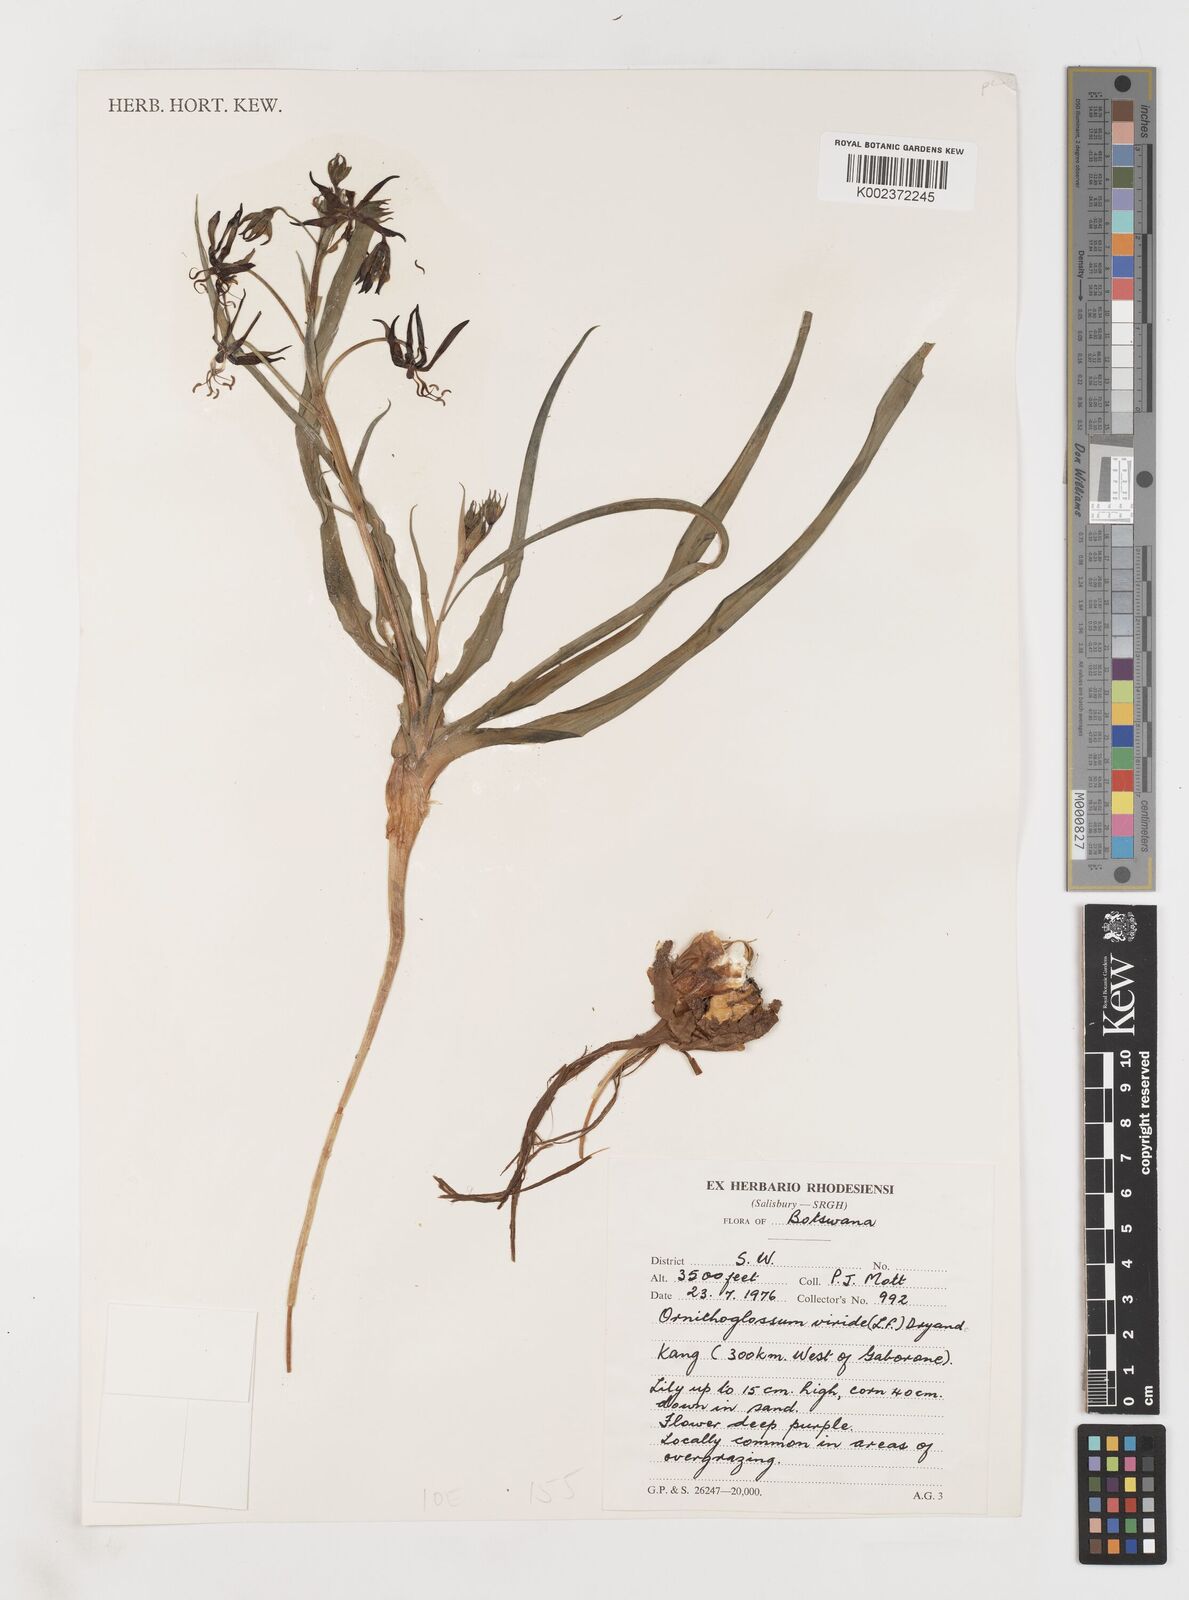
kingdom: Plantae
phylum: Tracheophyta
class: Liliopsida
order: Liliales
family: Colchicaceae
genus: Ornithoglossum
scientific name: Ornithoglossum vulgare
